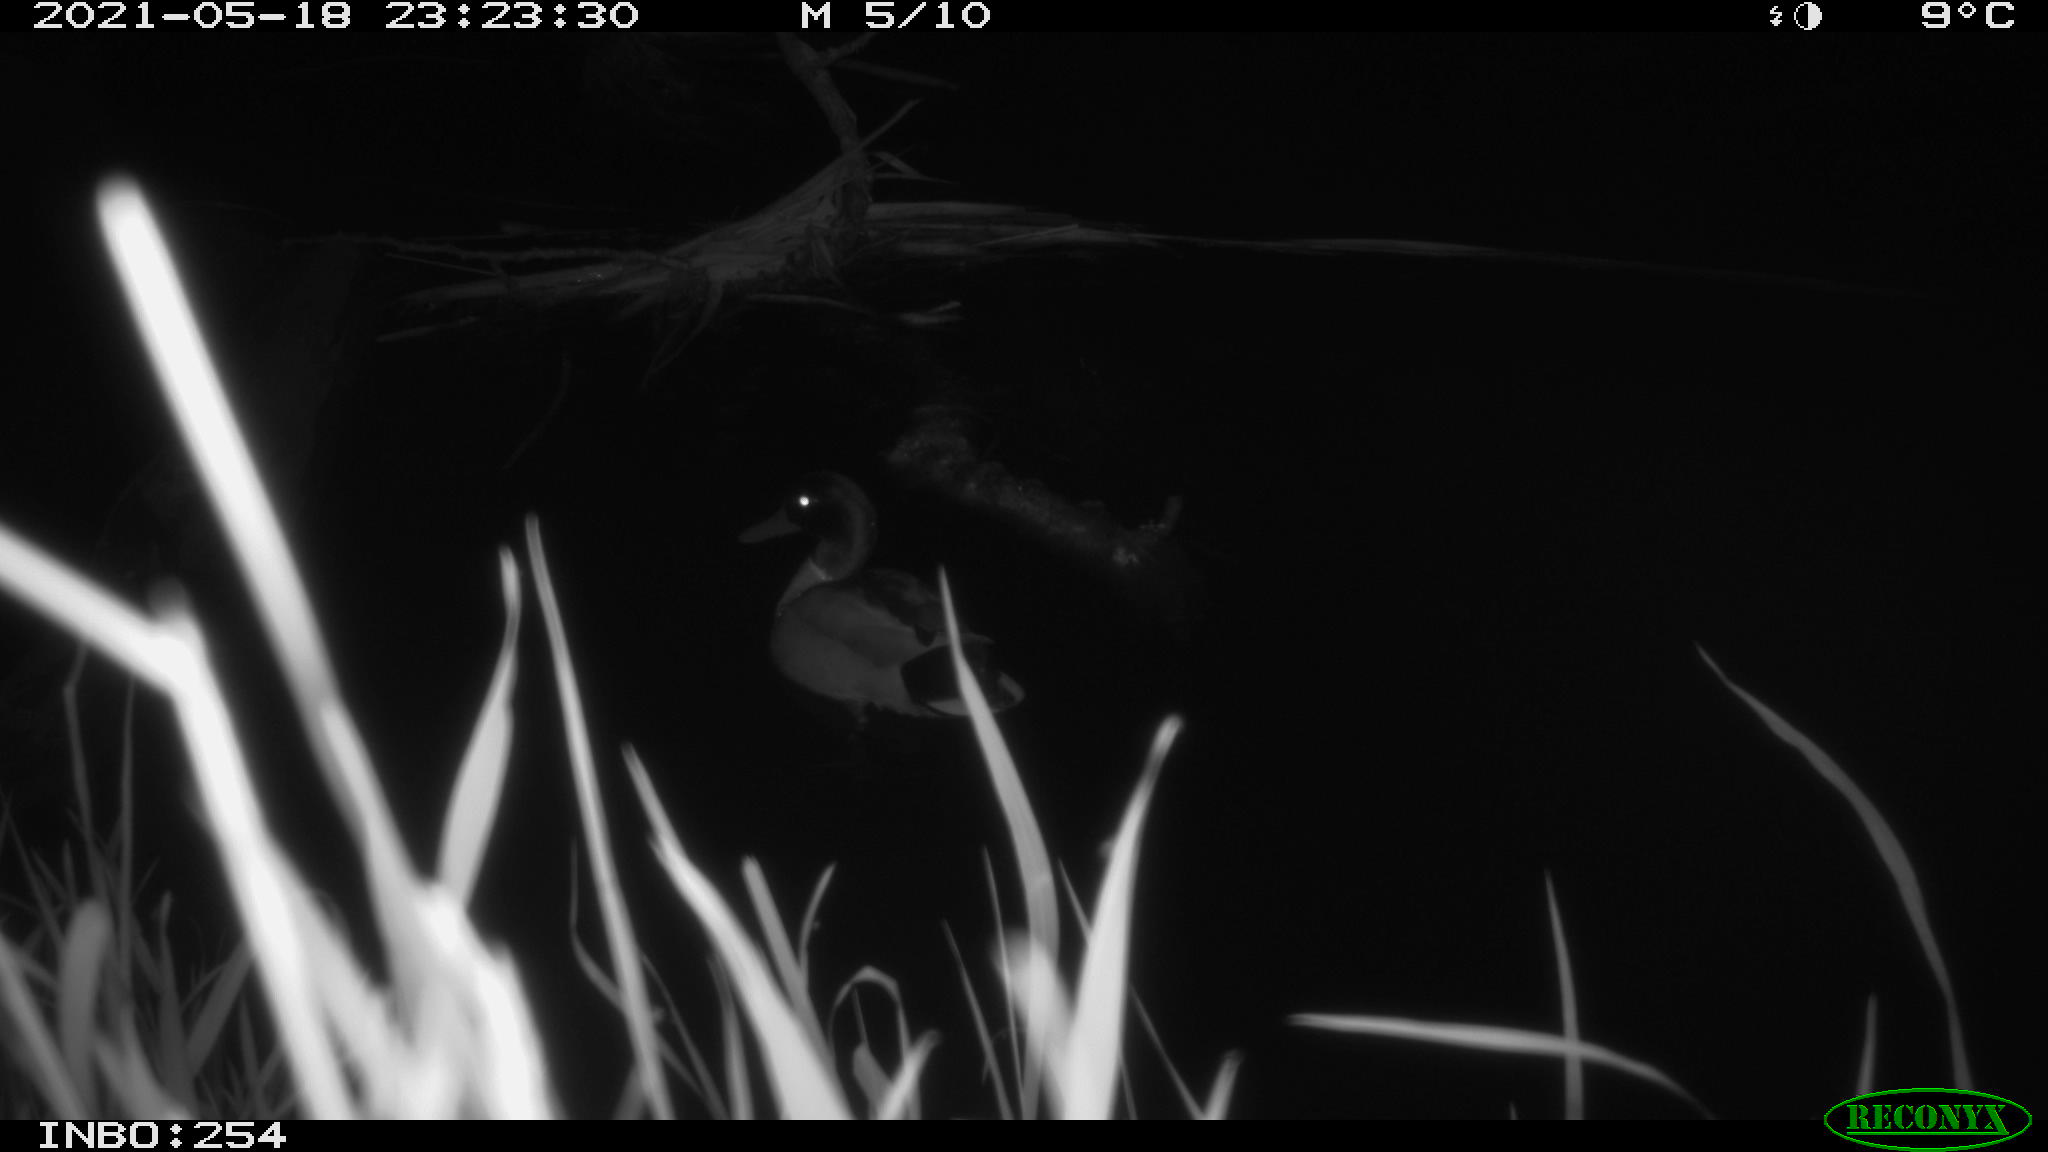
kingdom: Animalia
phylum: Chordata
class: Aves
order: Anseriformes
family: Anatidae
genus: Anas
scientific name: Anas
